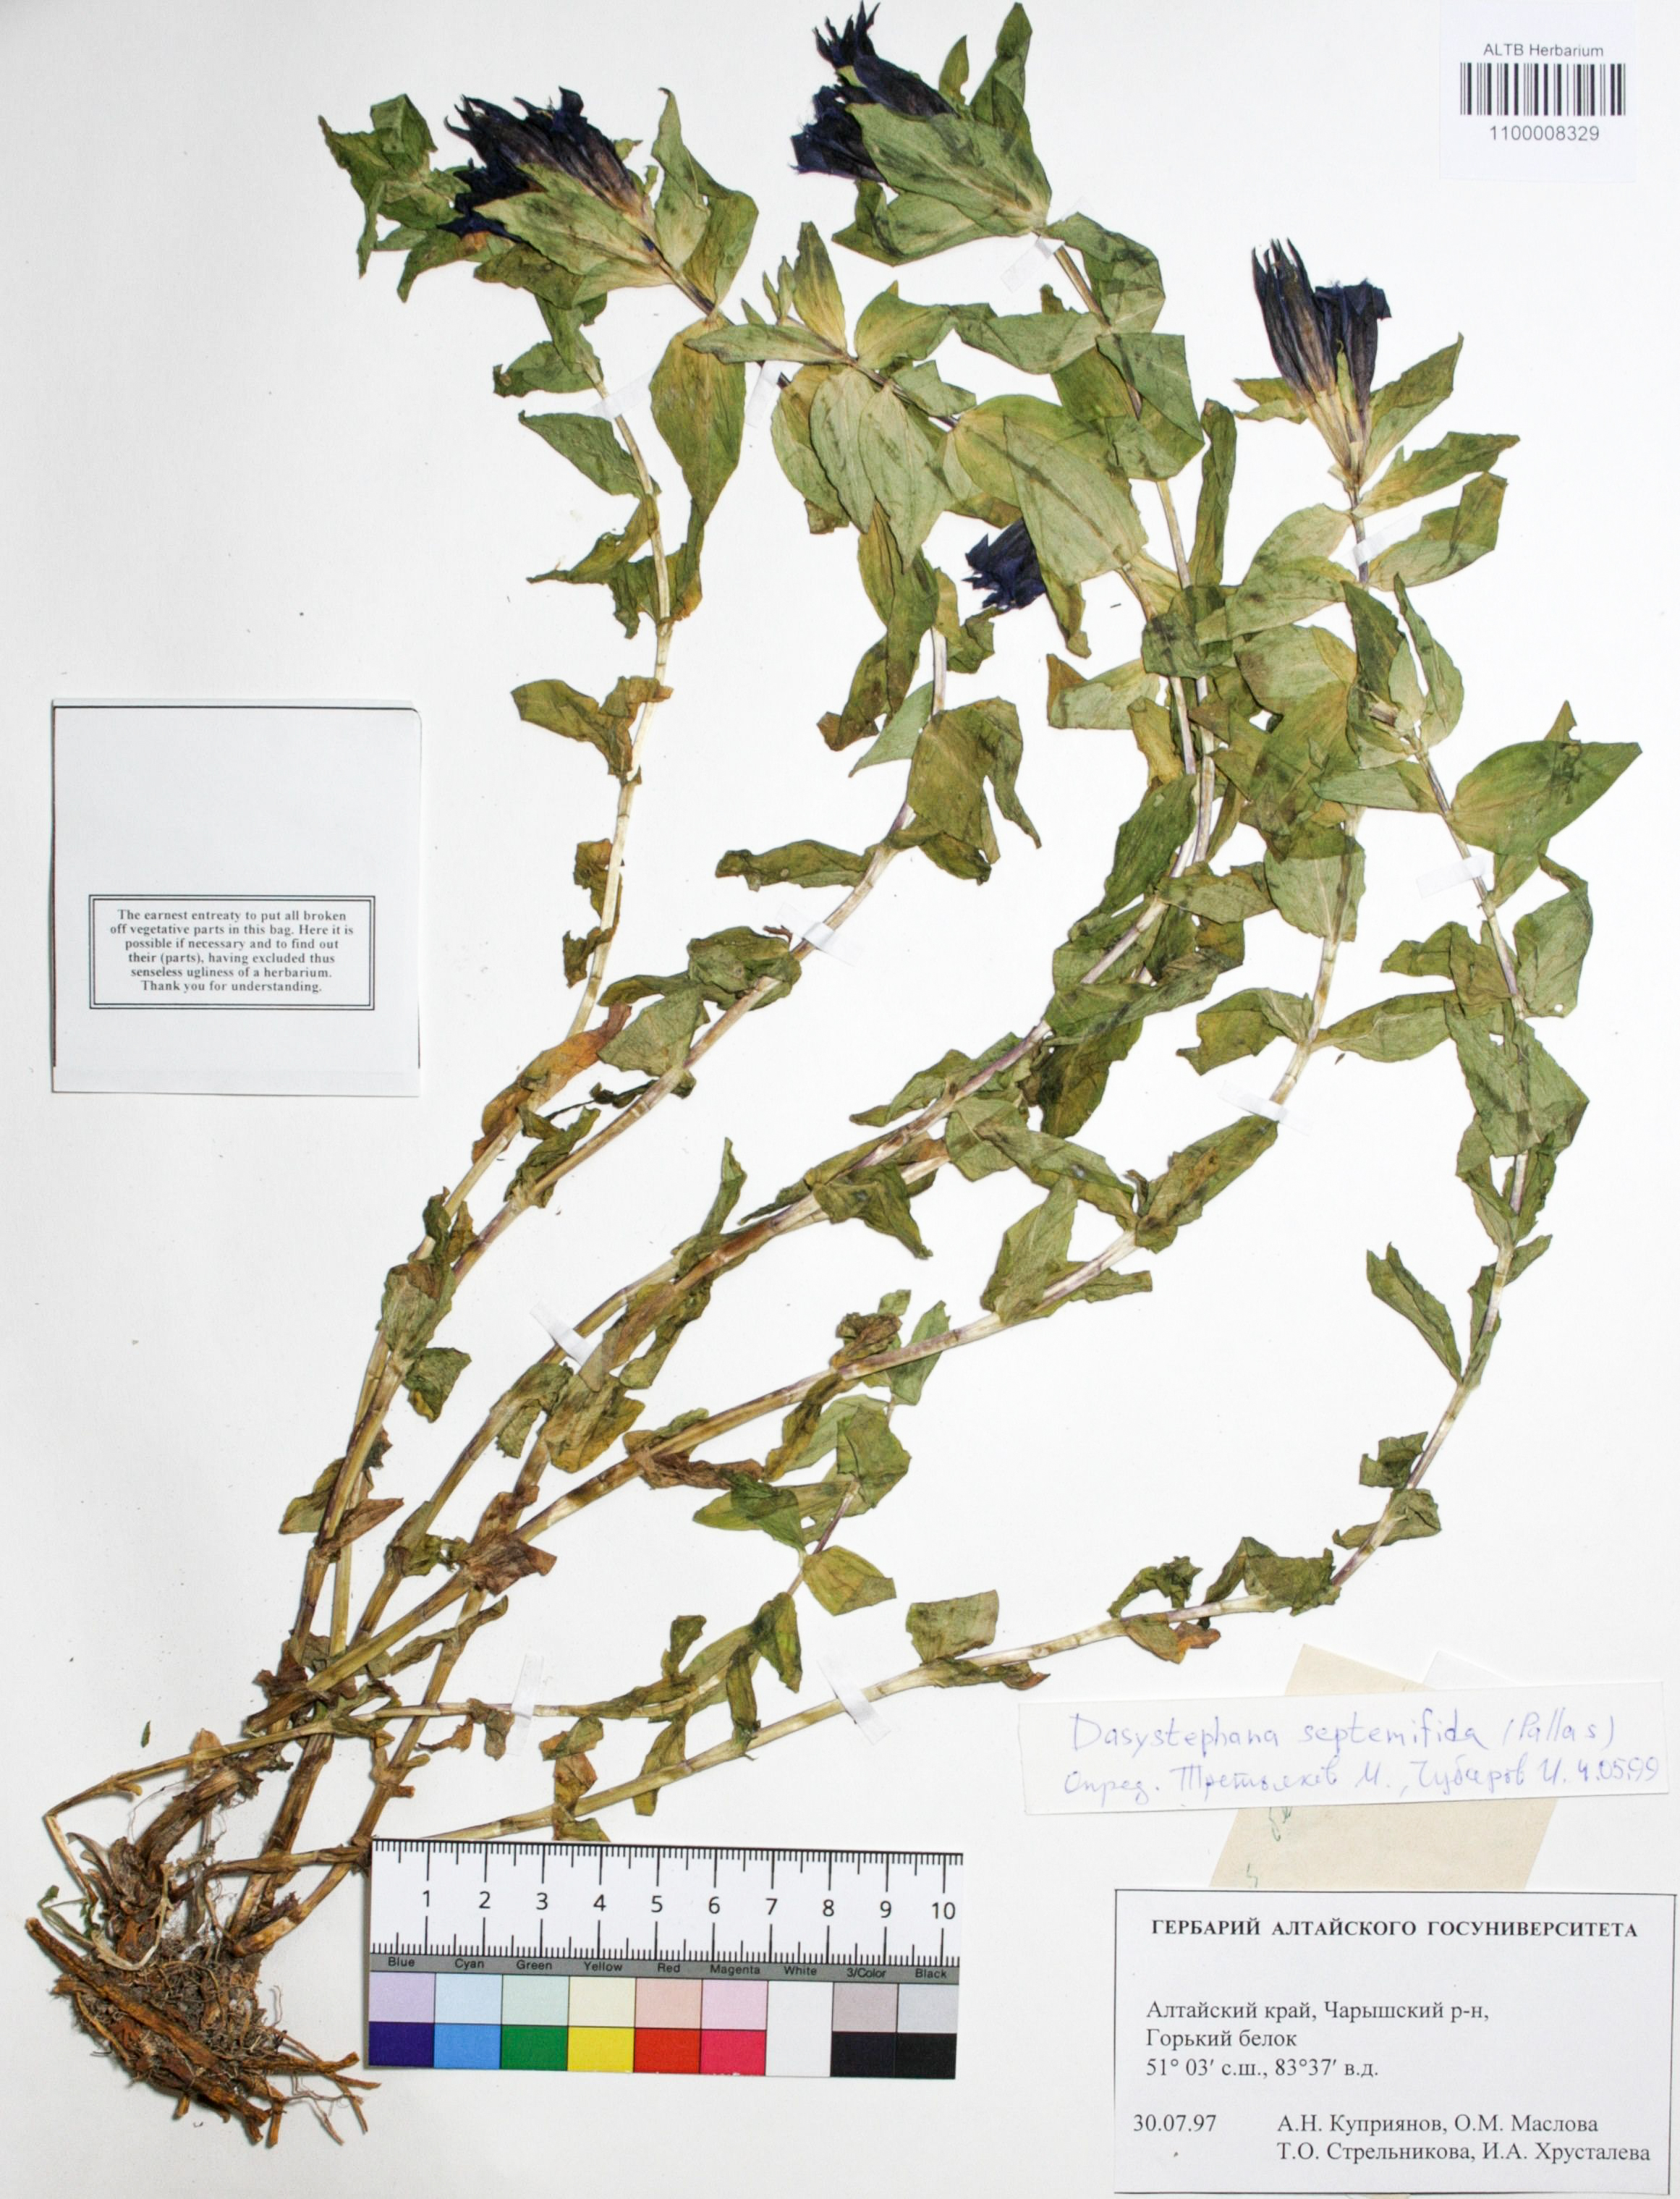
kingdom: Plantae
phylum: Tracheophyta
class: Magnoliopsida
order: Gentianales
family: Gentianaceae
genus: Gentiana
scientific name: Gentiana septemfida
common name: Crested gentian
